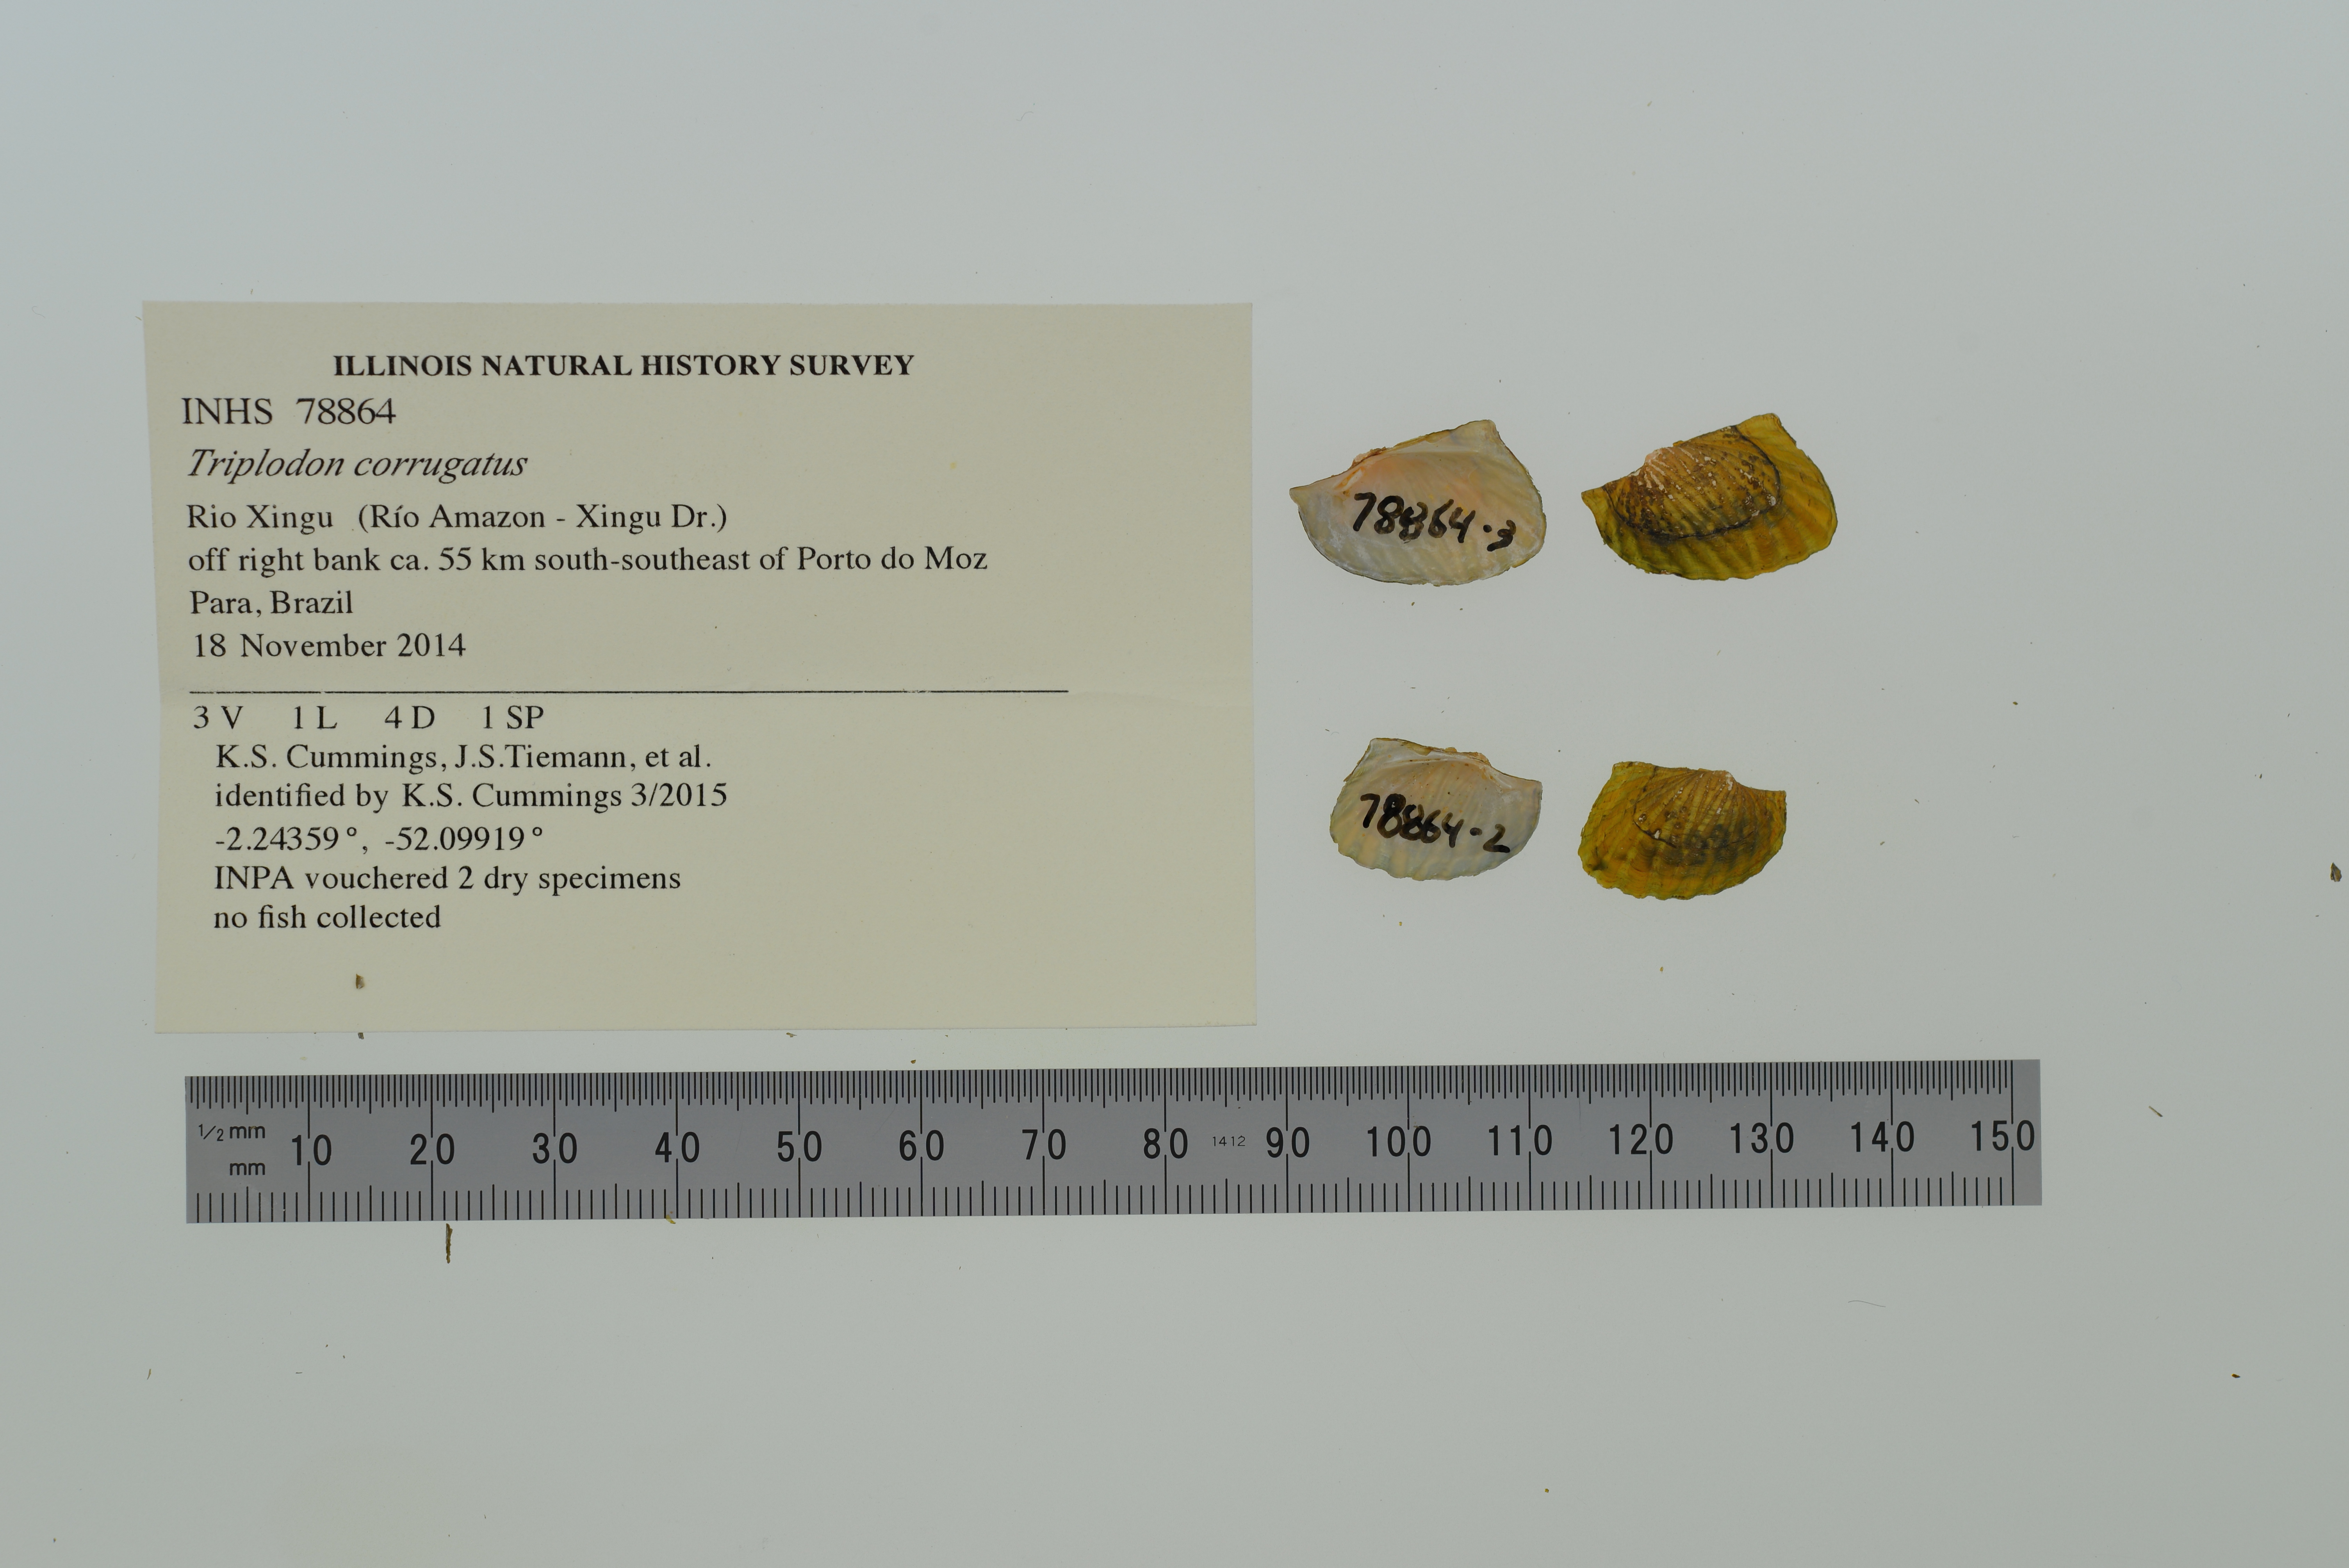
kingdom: Animalia
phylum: Mollusca
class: Bivalvia
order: Unionida
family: Hyriidae
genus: Triplodon
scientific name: Triplodon corrugatus
